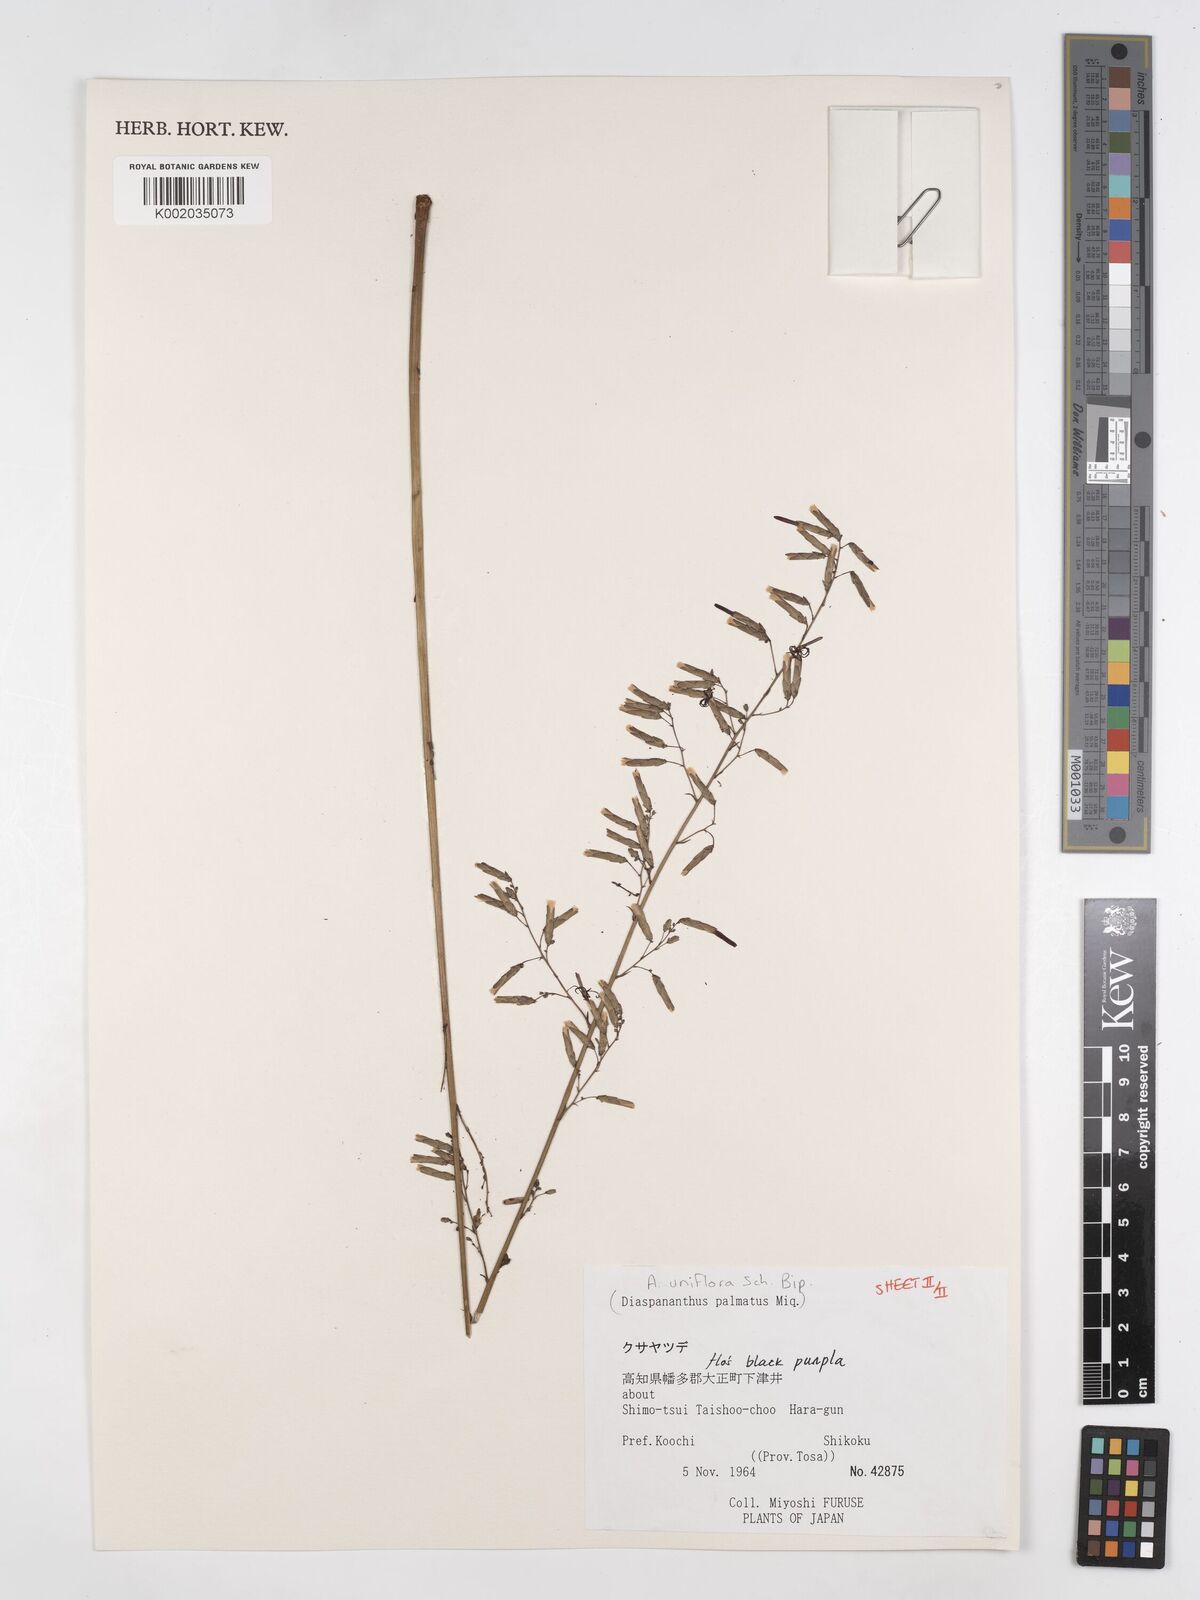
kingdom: Plantae
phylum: Tracheophyta
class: Magnoliopsida
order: Asterales
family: Asteraceae
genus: Ainsliaea
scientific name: Ainsliaea uniflora
